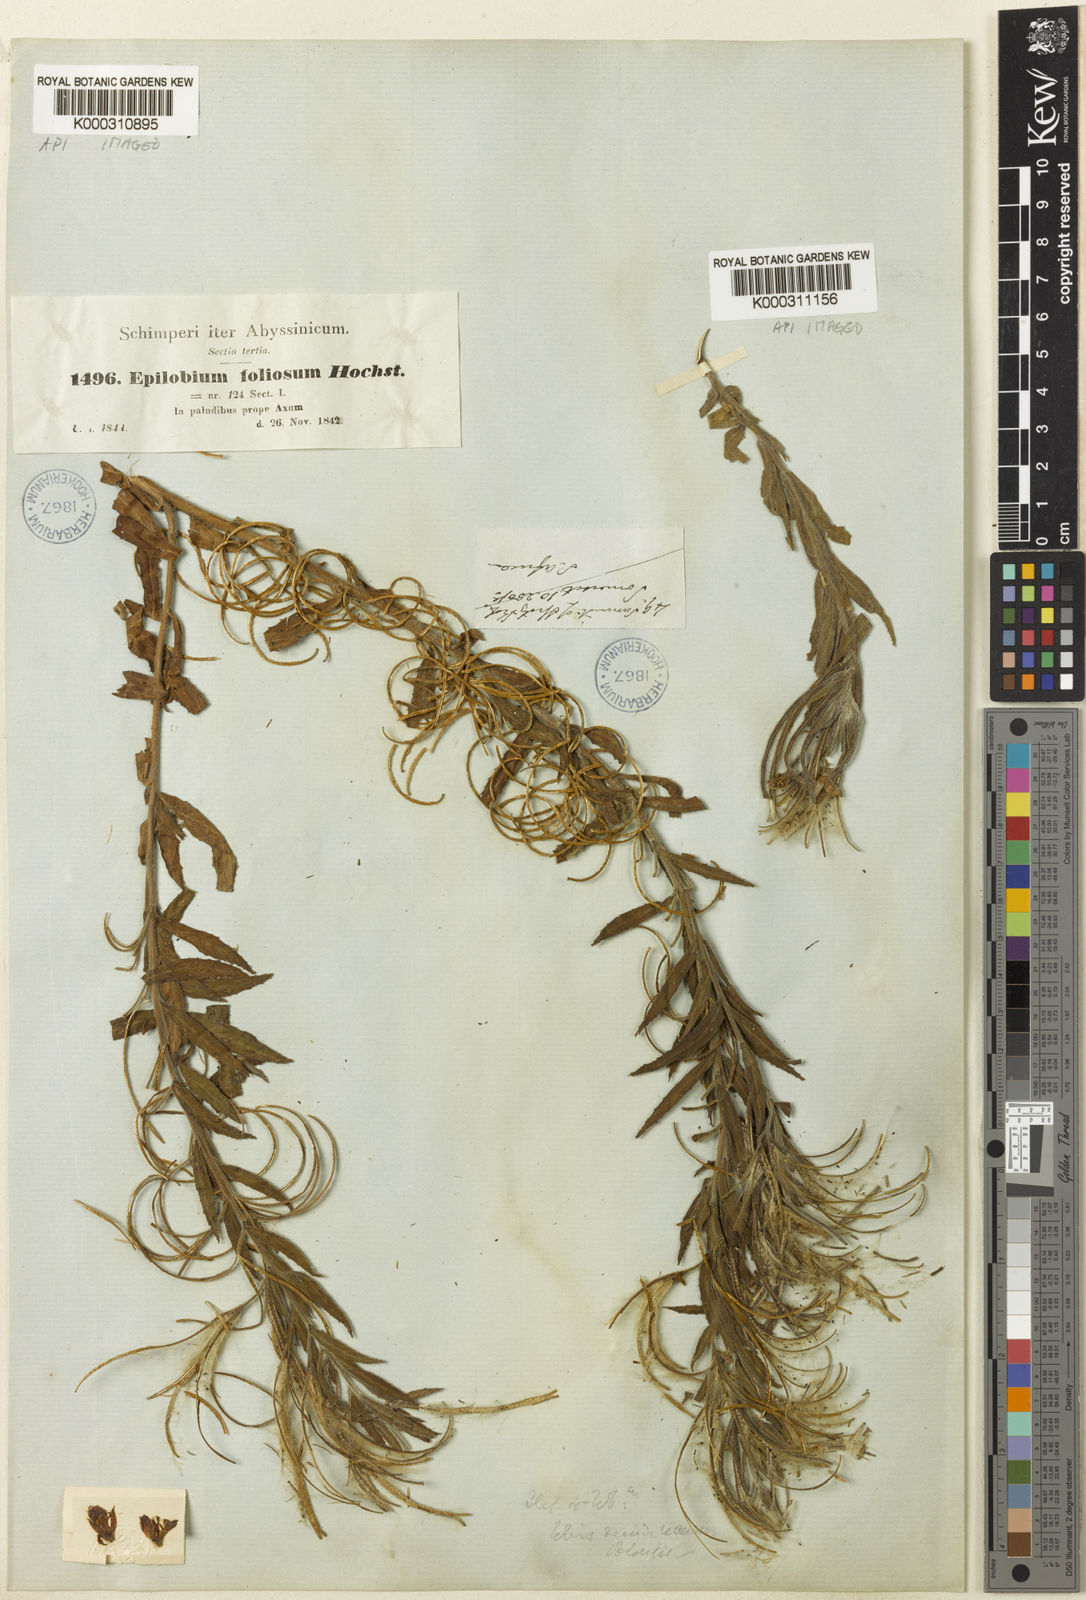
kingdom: Plantae
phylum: Tracheophyta
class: Magnoliopsida
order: Myrtales
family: Onagraceae
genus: Epilobium
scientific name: Epilobium hirsutum
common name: Great willowherb
